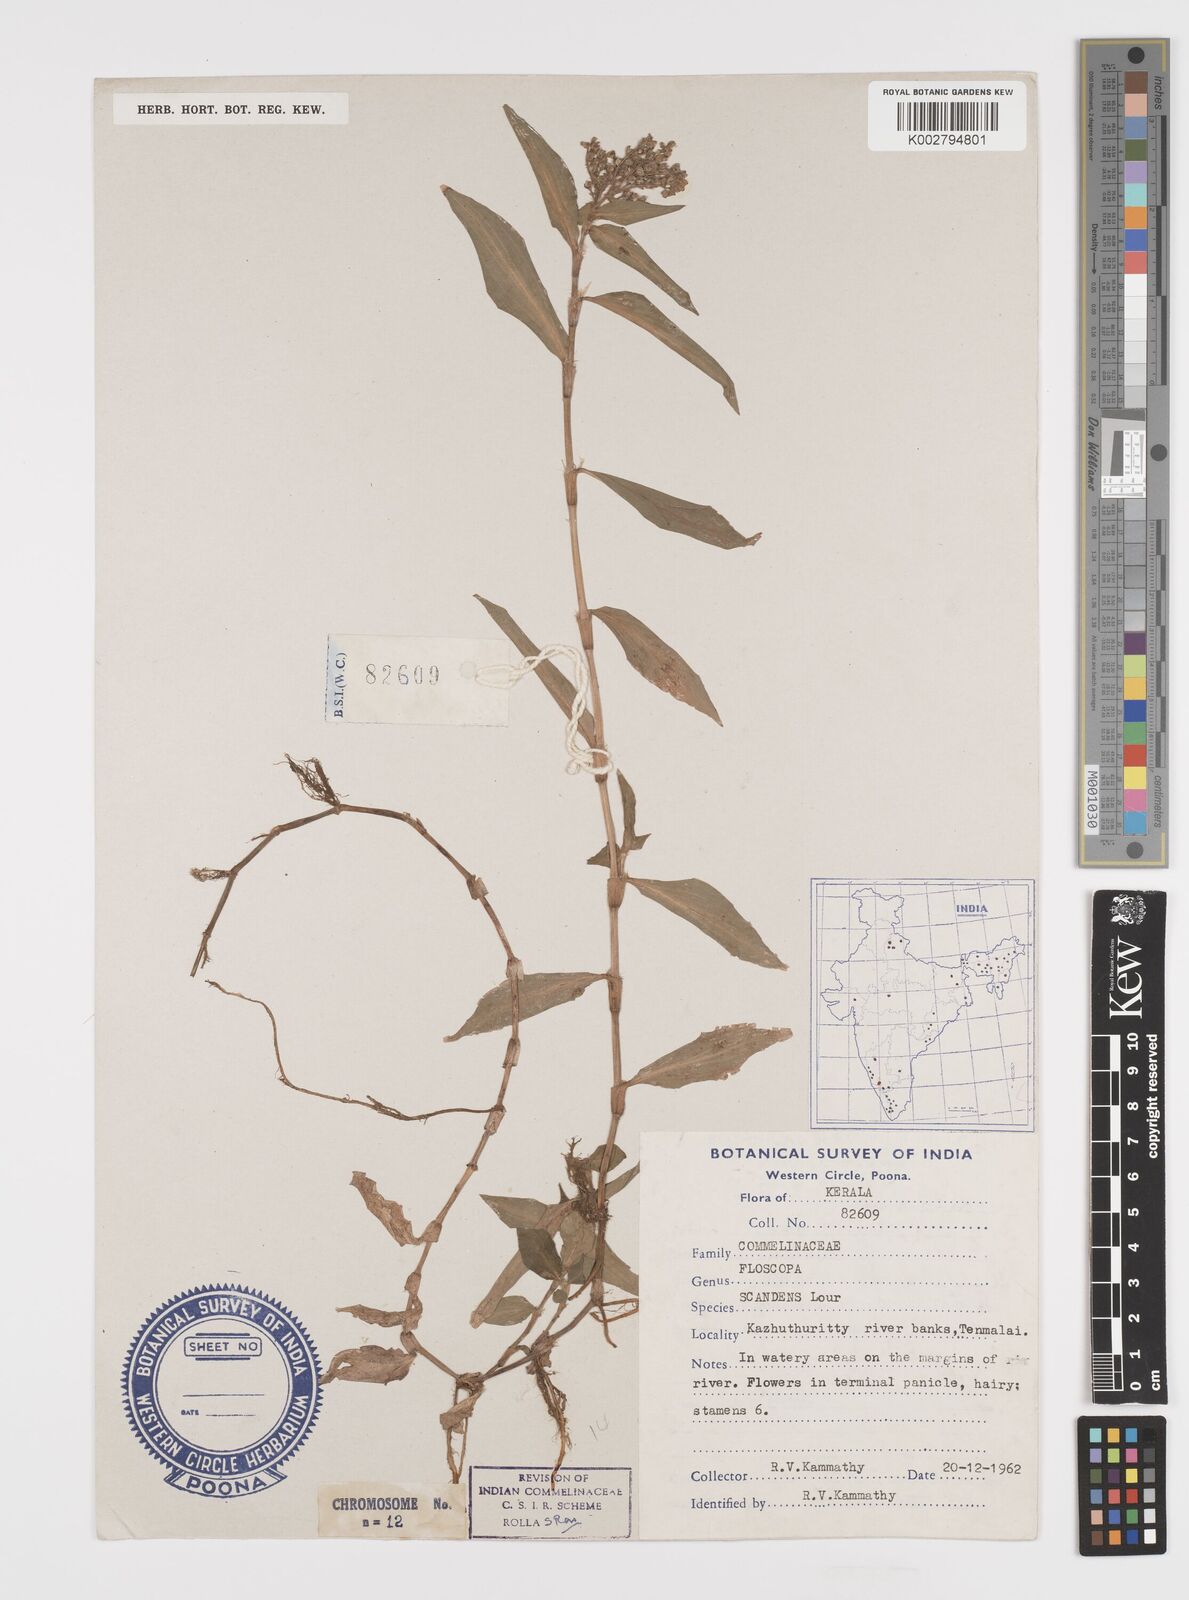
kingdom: Plantae
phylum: Tracheophyta
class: Liliopsida
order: Commelinales
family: Commelinaceae
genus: Floscopa
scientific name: Floscopa scandens
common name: Climbing flower cup
